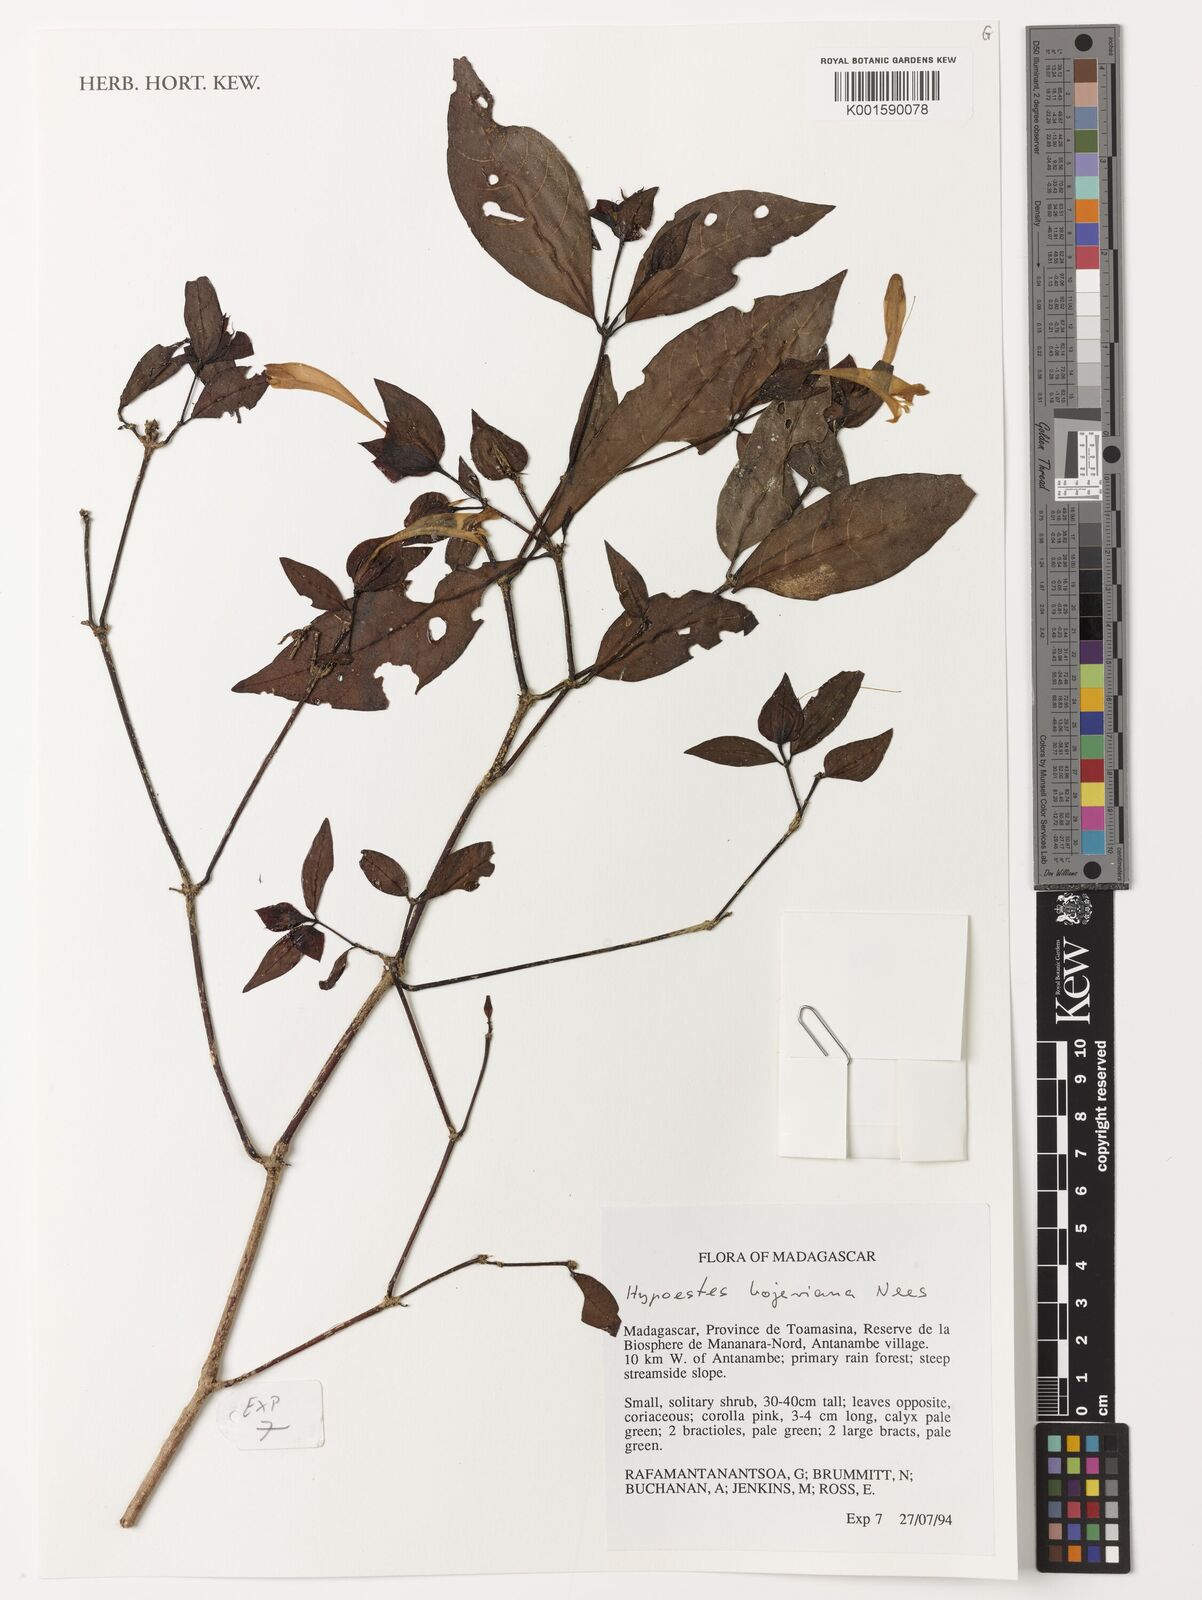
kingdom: Plantae
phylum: Tracheophyta
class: Magnoliopsida
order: Lamiales
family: Acanthaceae
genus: Hypoestes
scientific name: Hypoestes bojeriana
